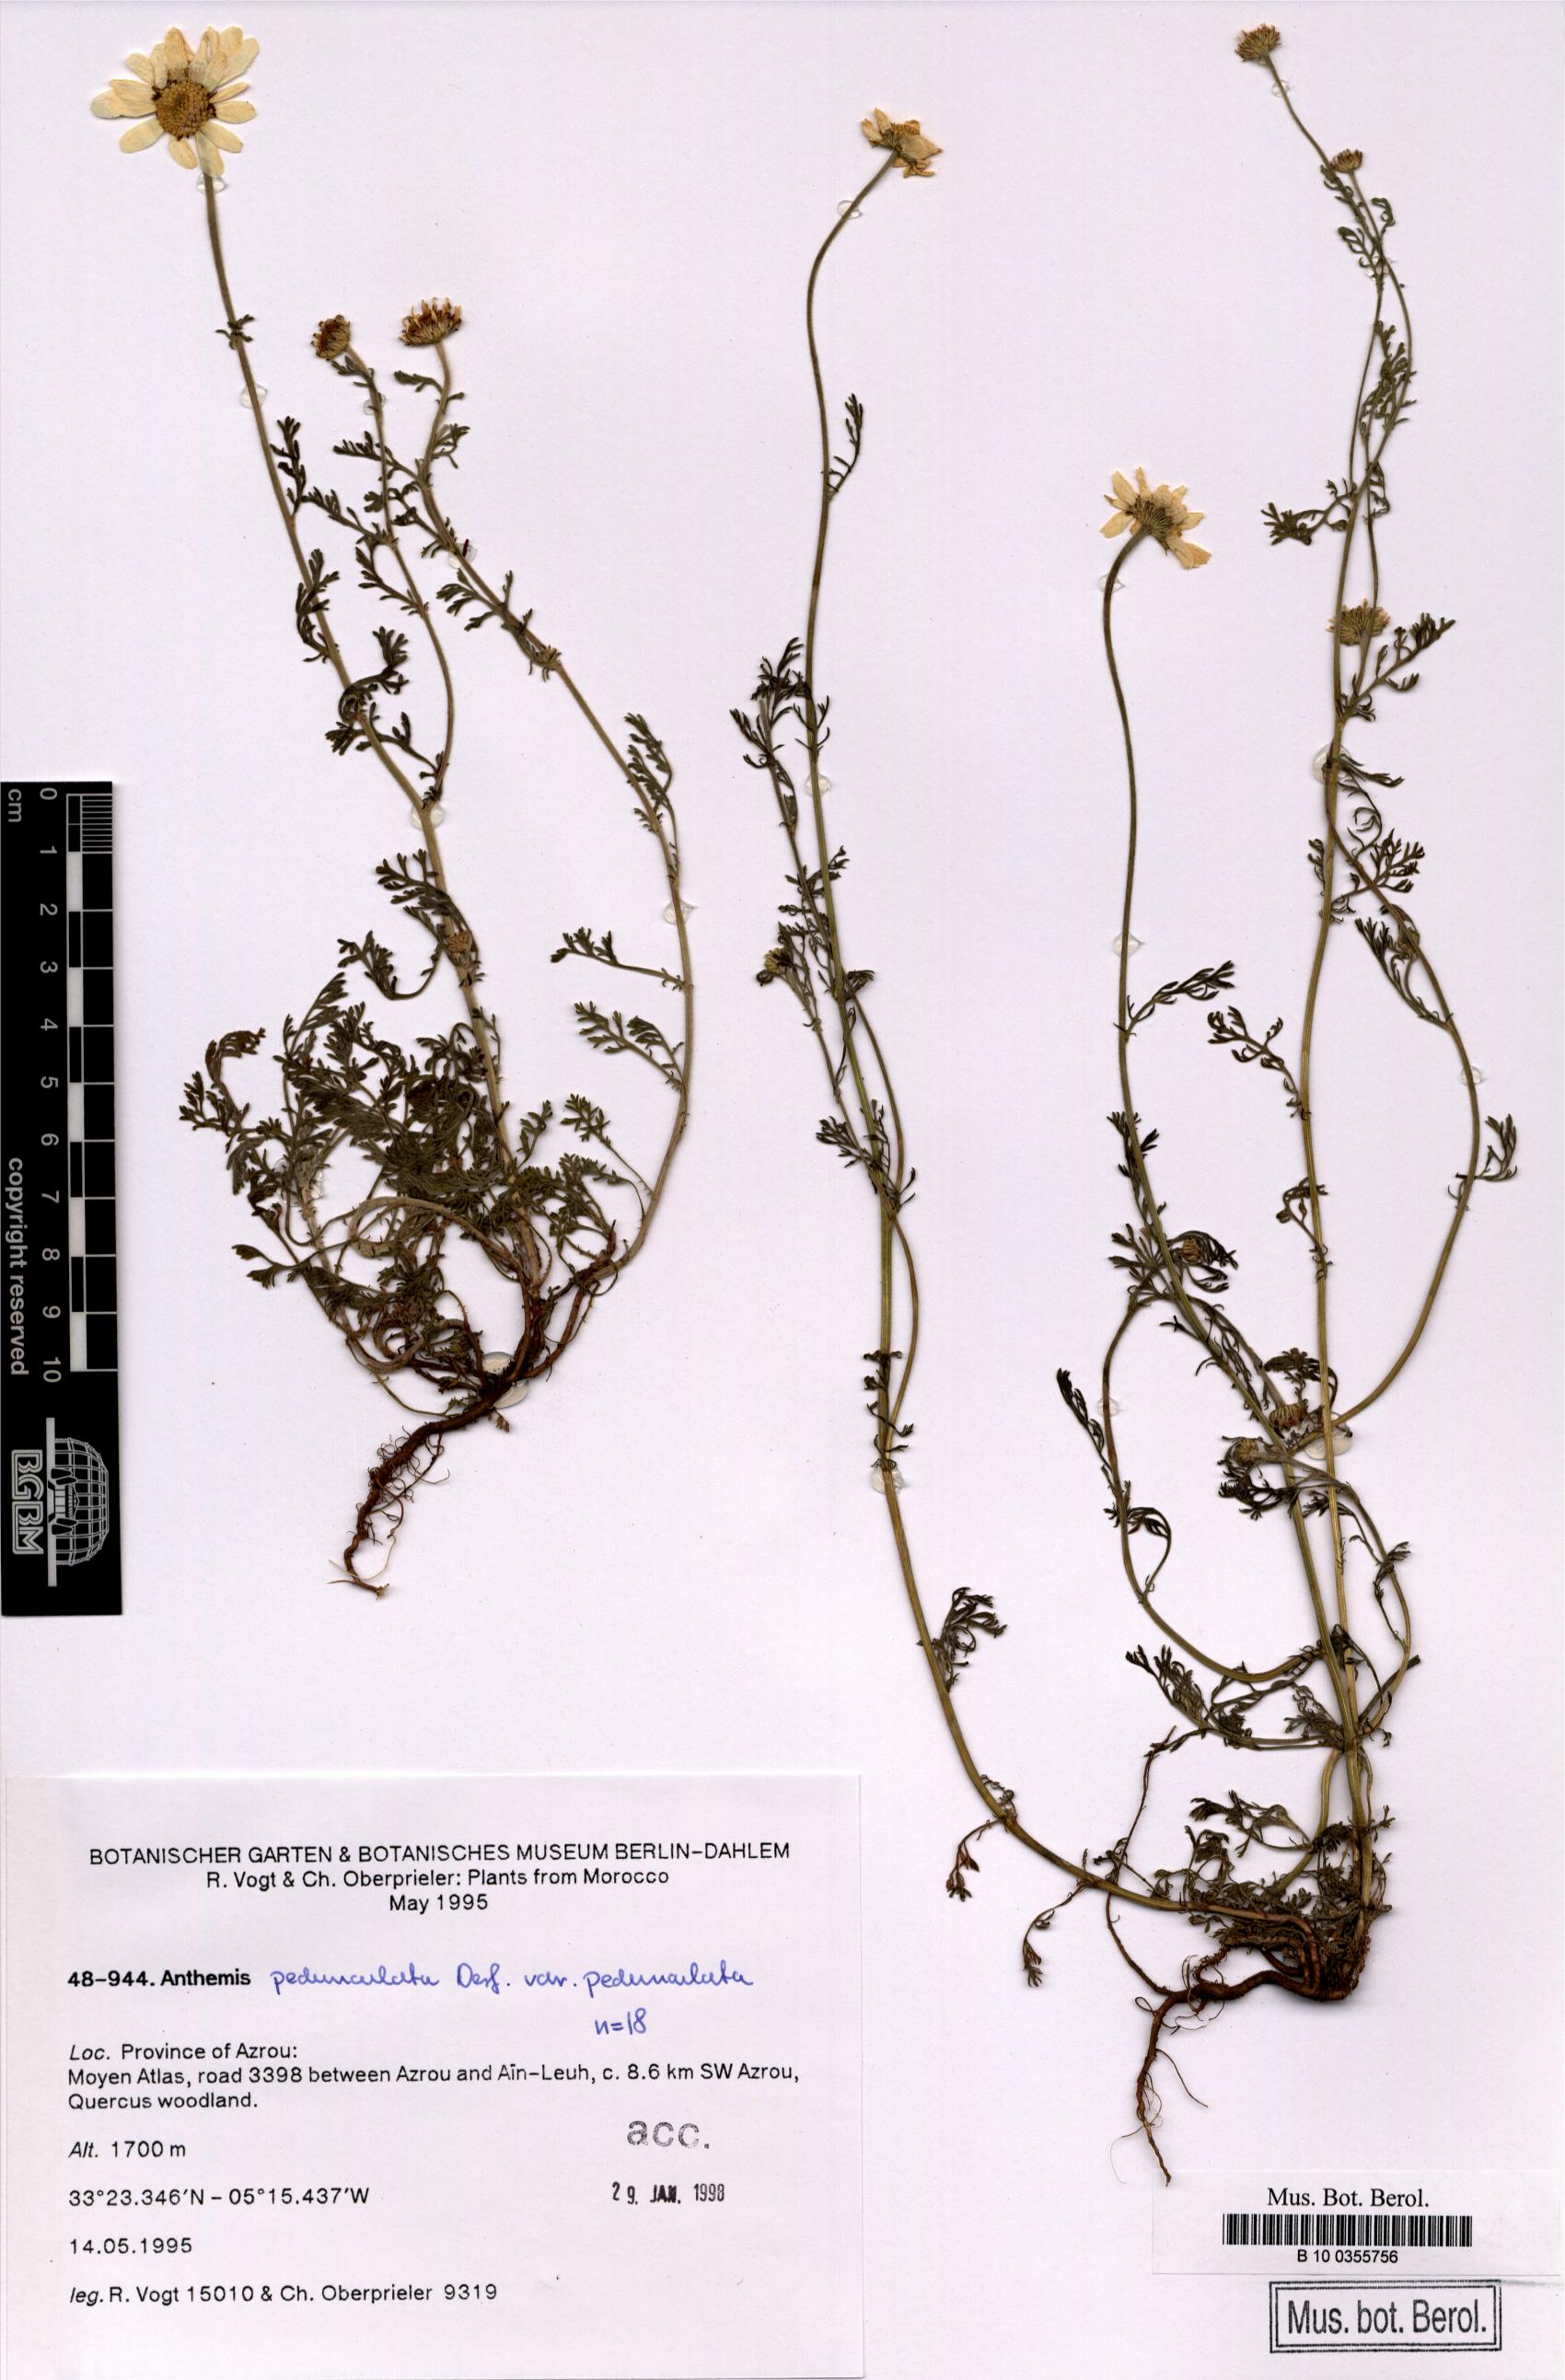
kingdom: Plantae
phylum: Tracheophyta
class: Magnoliopsida
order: Asterales
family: Asteraceae
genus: Anthemis
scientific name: Anthemis pedunculata
